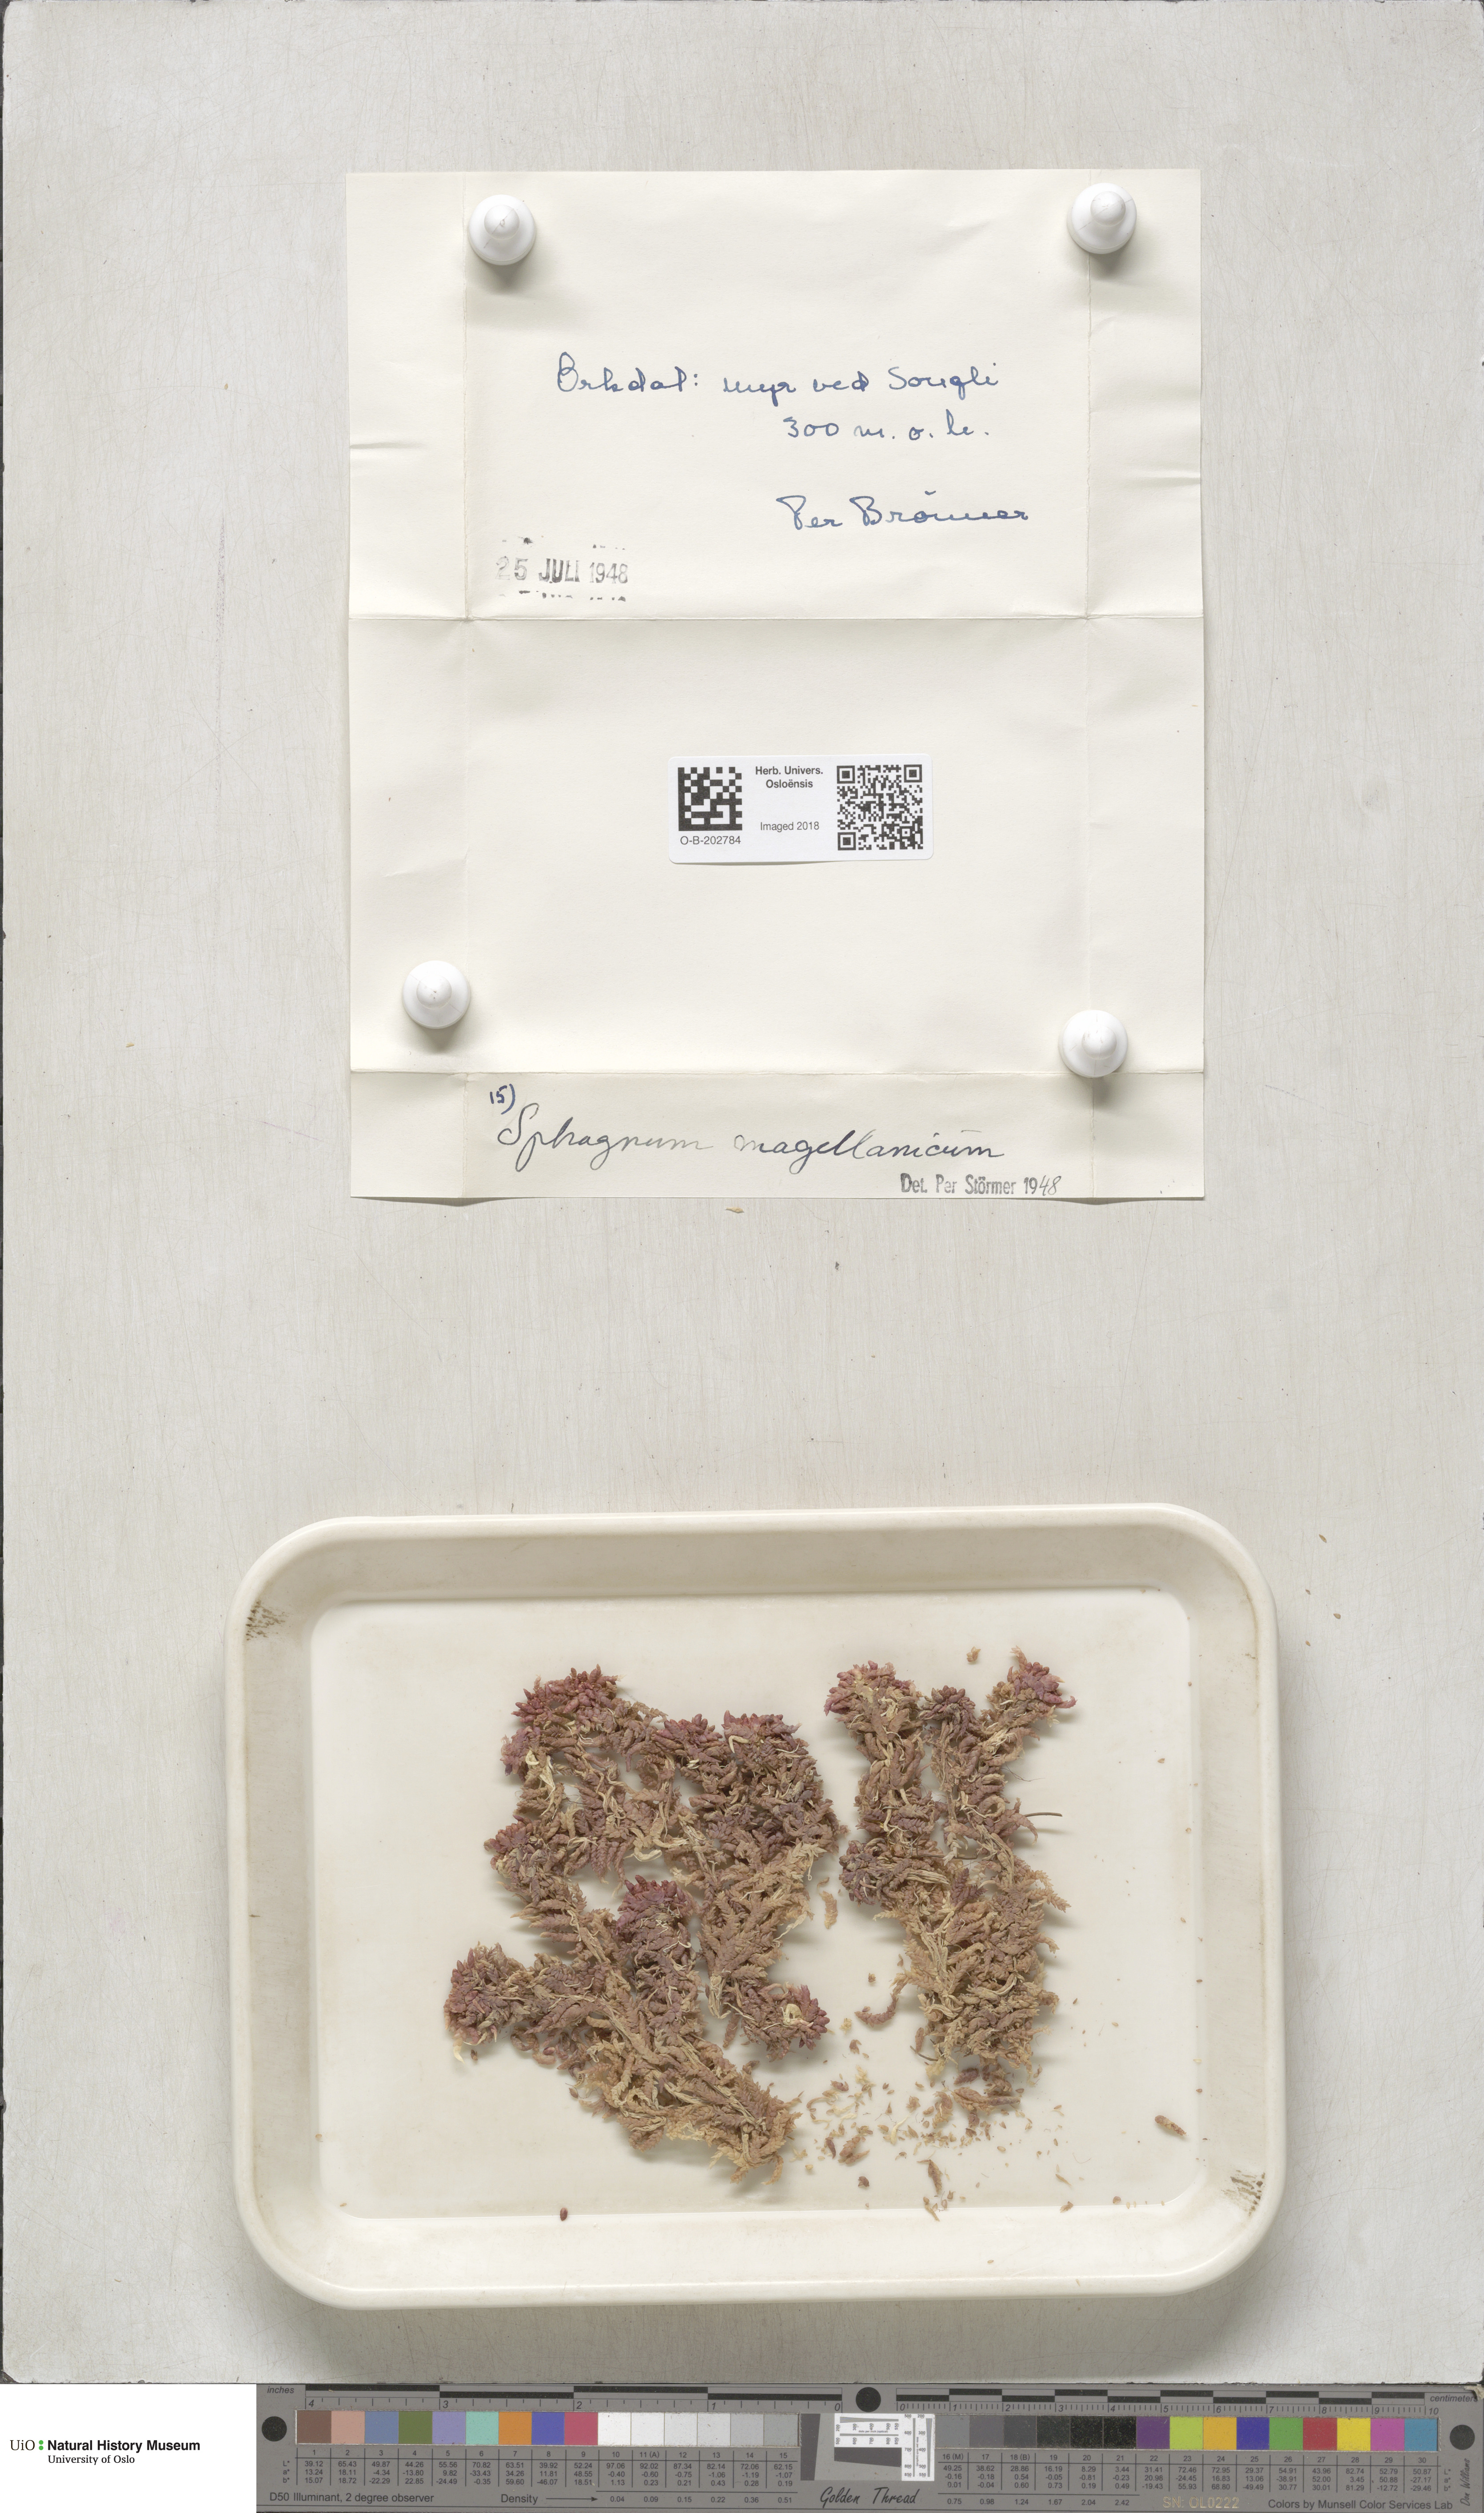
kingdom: Plantae
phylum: Bryophyta
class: Sphagnopsida
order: Sphagnales
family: Sphagnaceae
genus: Sphagnum
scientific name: Sphagnum magellanicum
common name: Magellan's peat moss
